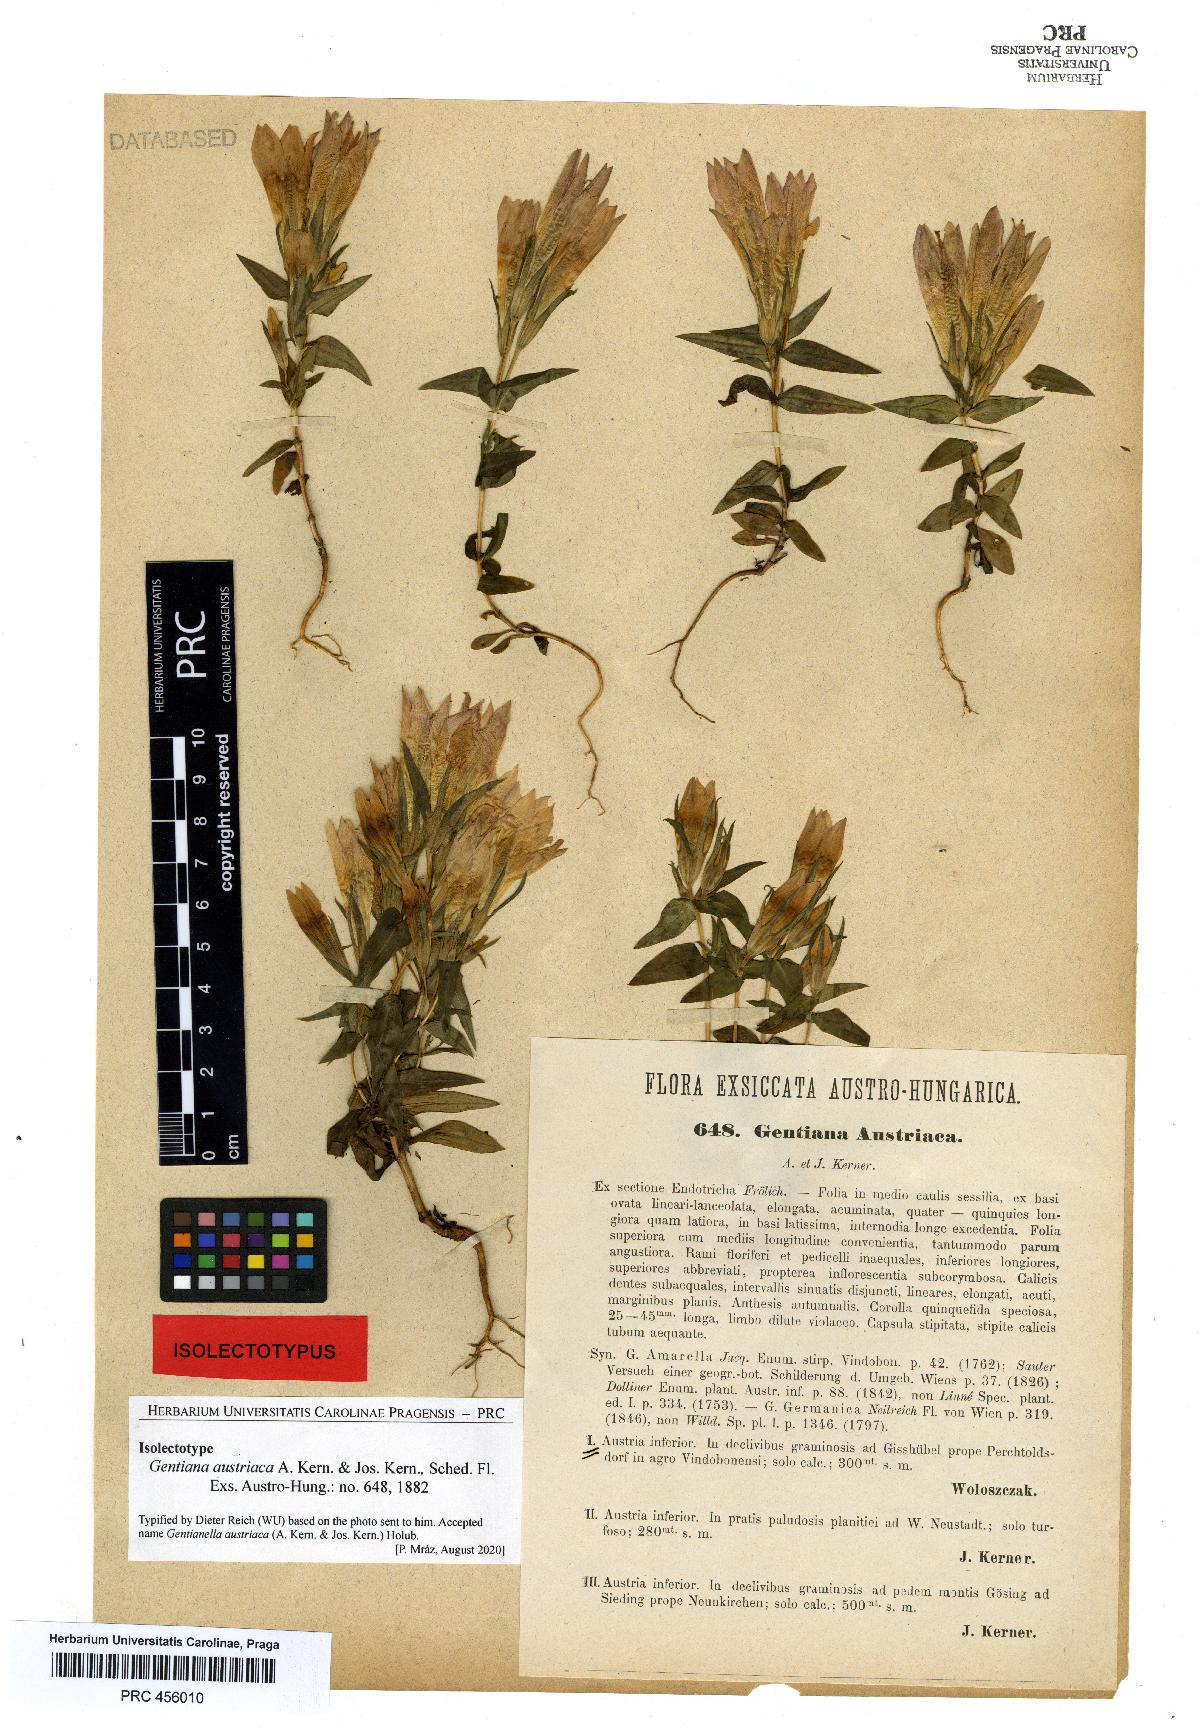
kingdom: Plantae
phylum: Tracheophyta
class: Magnoliopsida
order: Gentianales
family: Gentianaceae
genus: Gentianella
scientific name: Gentianella austriaca
